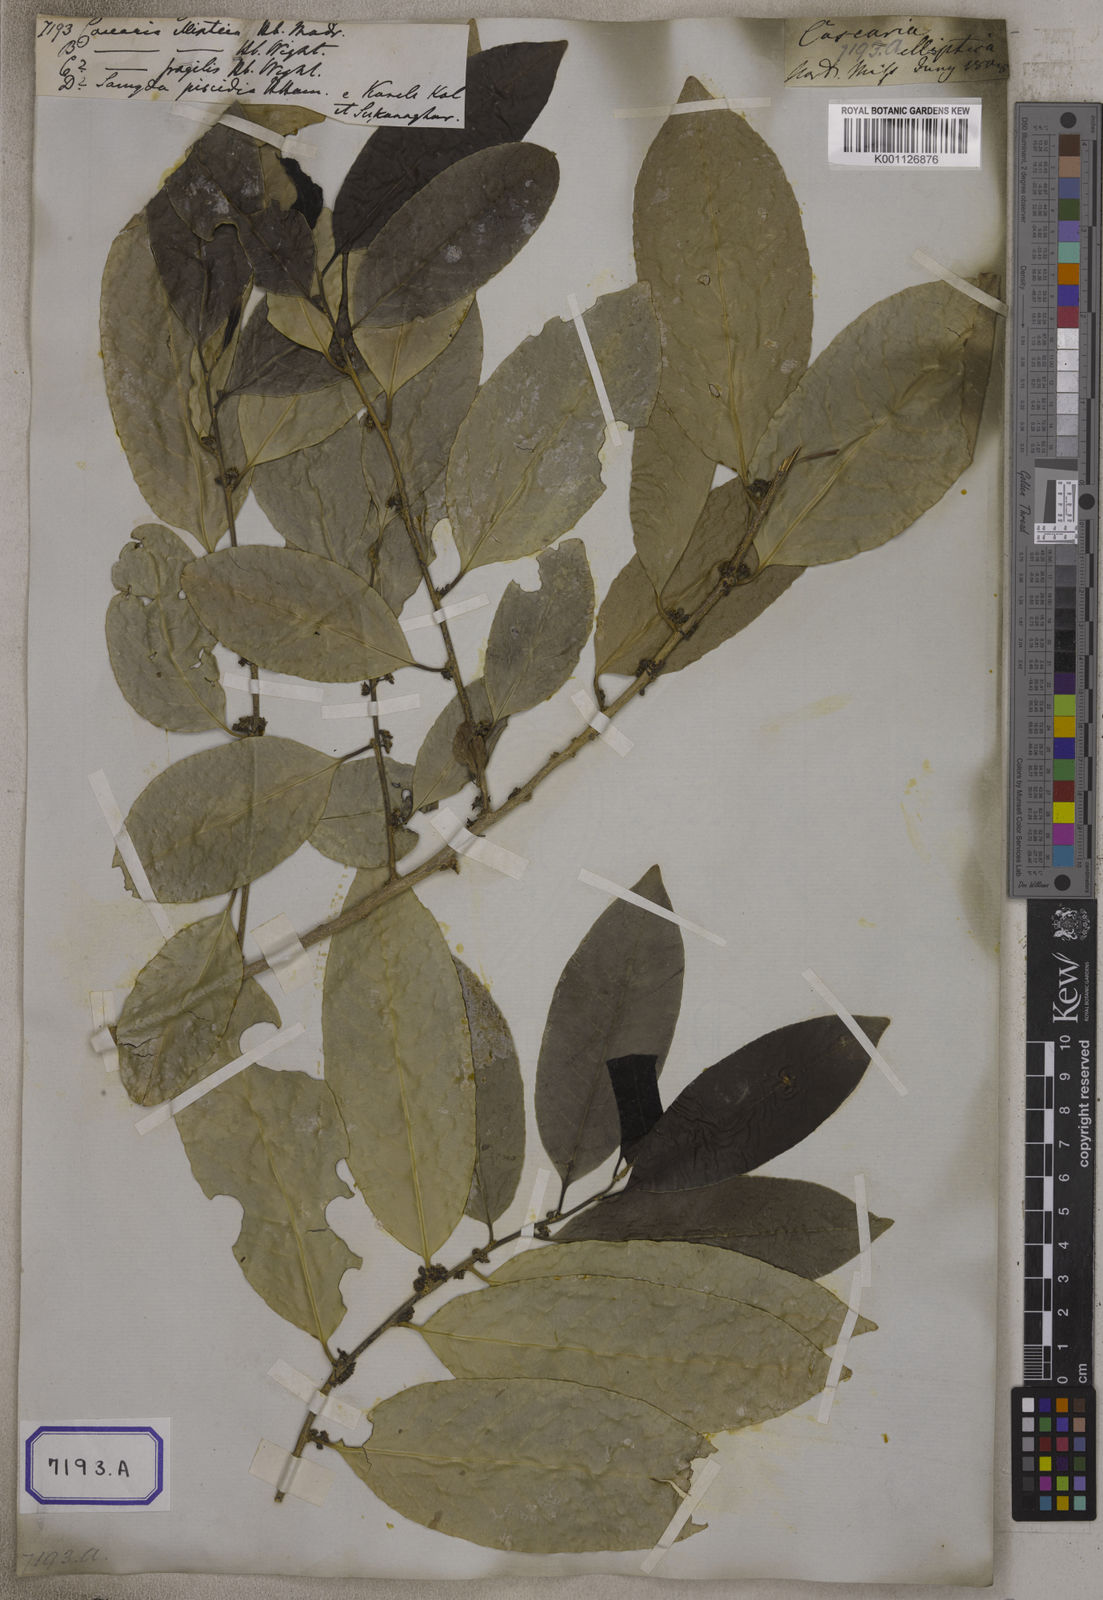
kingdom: Plantae
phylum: Tracheophyta
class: Magnoliopsida
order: Malpighiales
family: Salicaceae
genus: Casearia
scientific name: Casearia tomentosa
